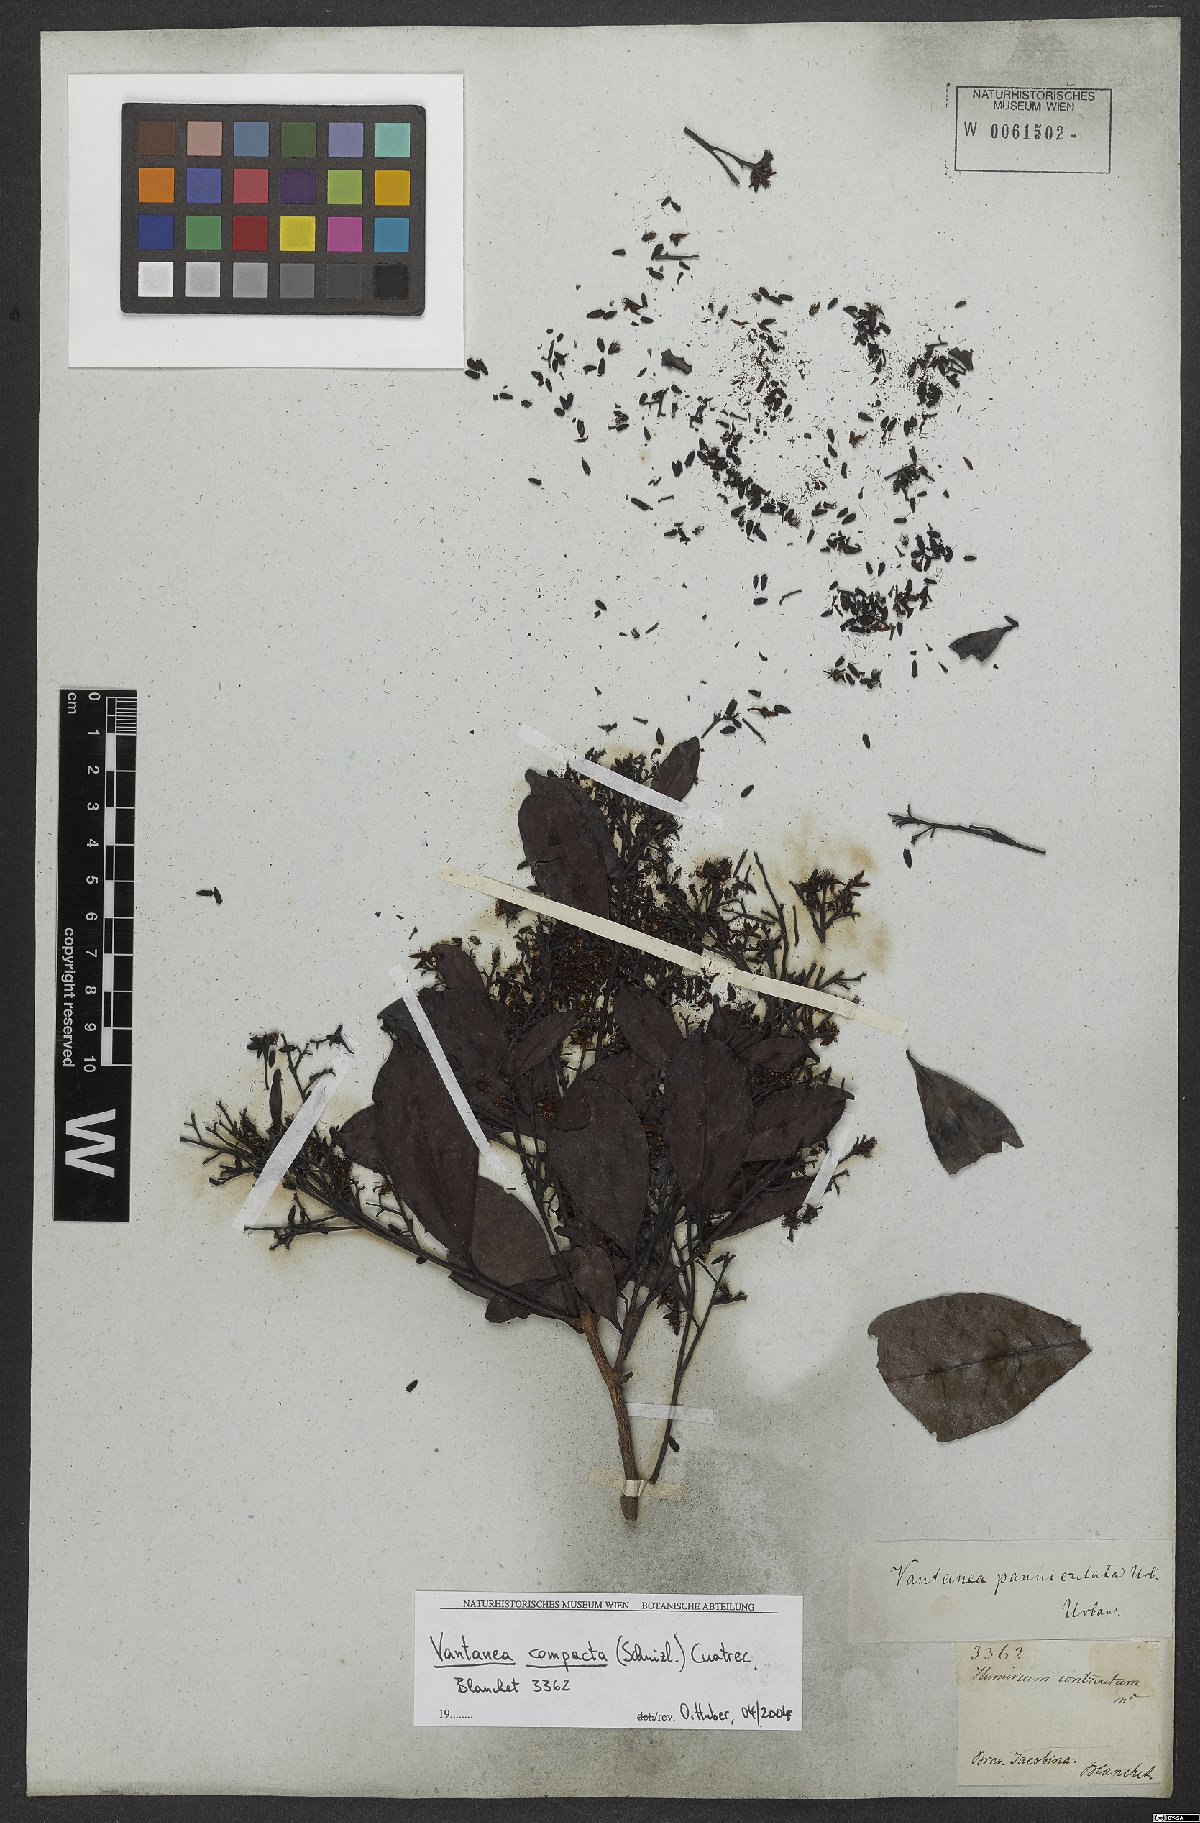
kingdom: Plantae
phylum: Tracheophyta
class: Magnoliopsida
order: Malpighiales
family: Humiriaceae
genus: Vantanea
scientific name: Vantanea compacta
